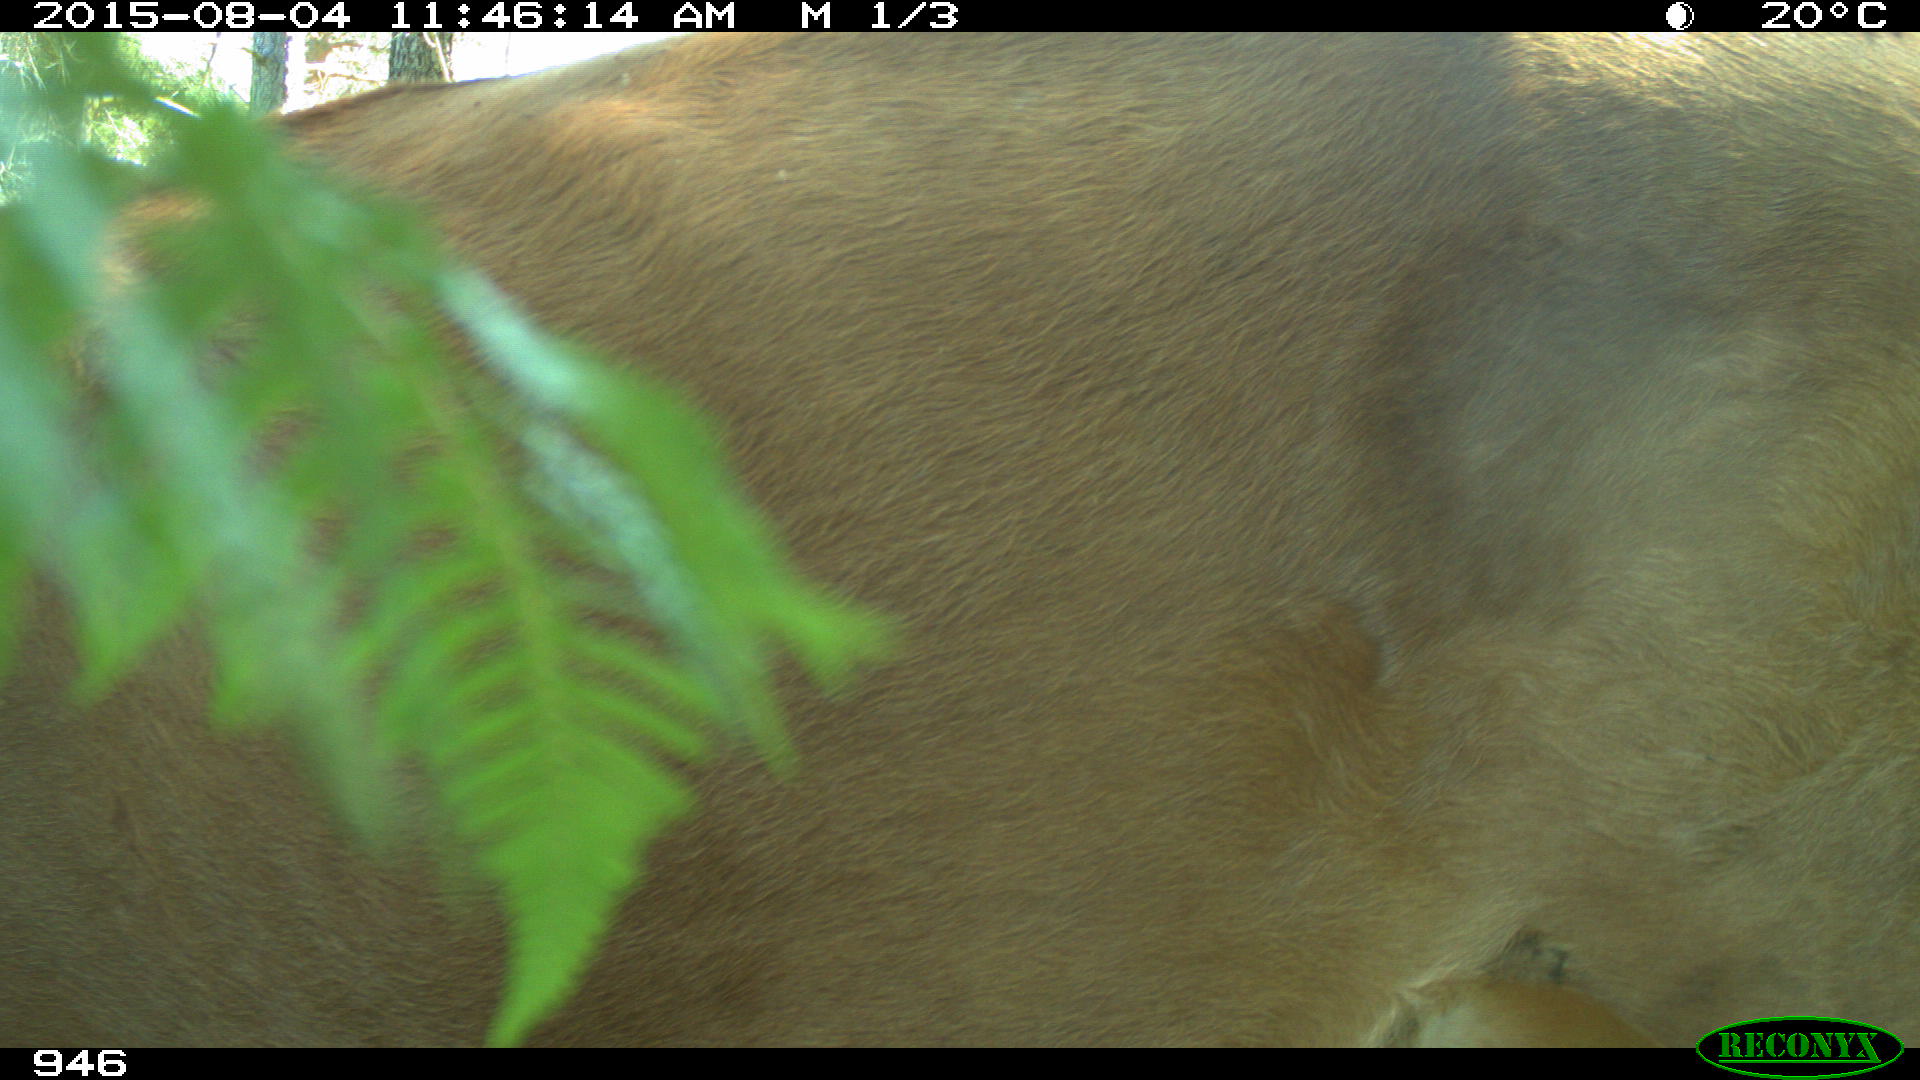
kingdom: Animalia
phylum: Chordata
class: Mammalia
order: Artiodactyla
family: Bovidae
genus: Bos
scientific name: Bos taurus
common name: Domesticated cattle
